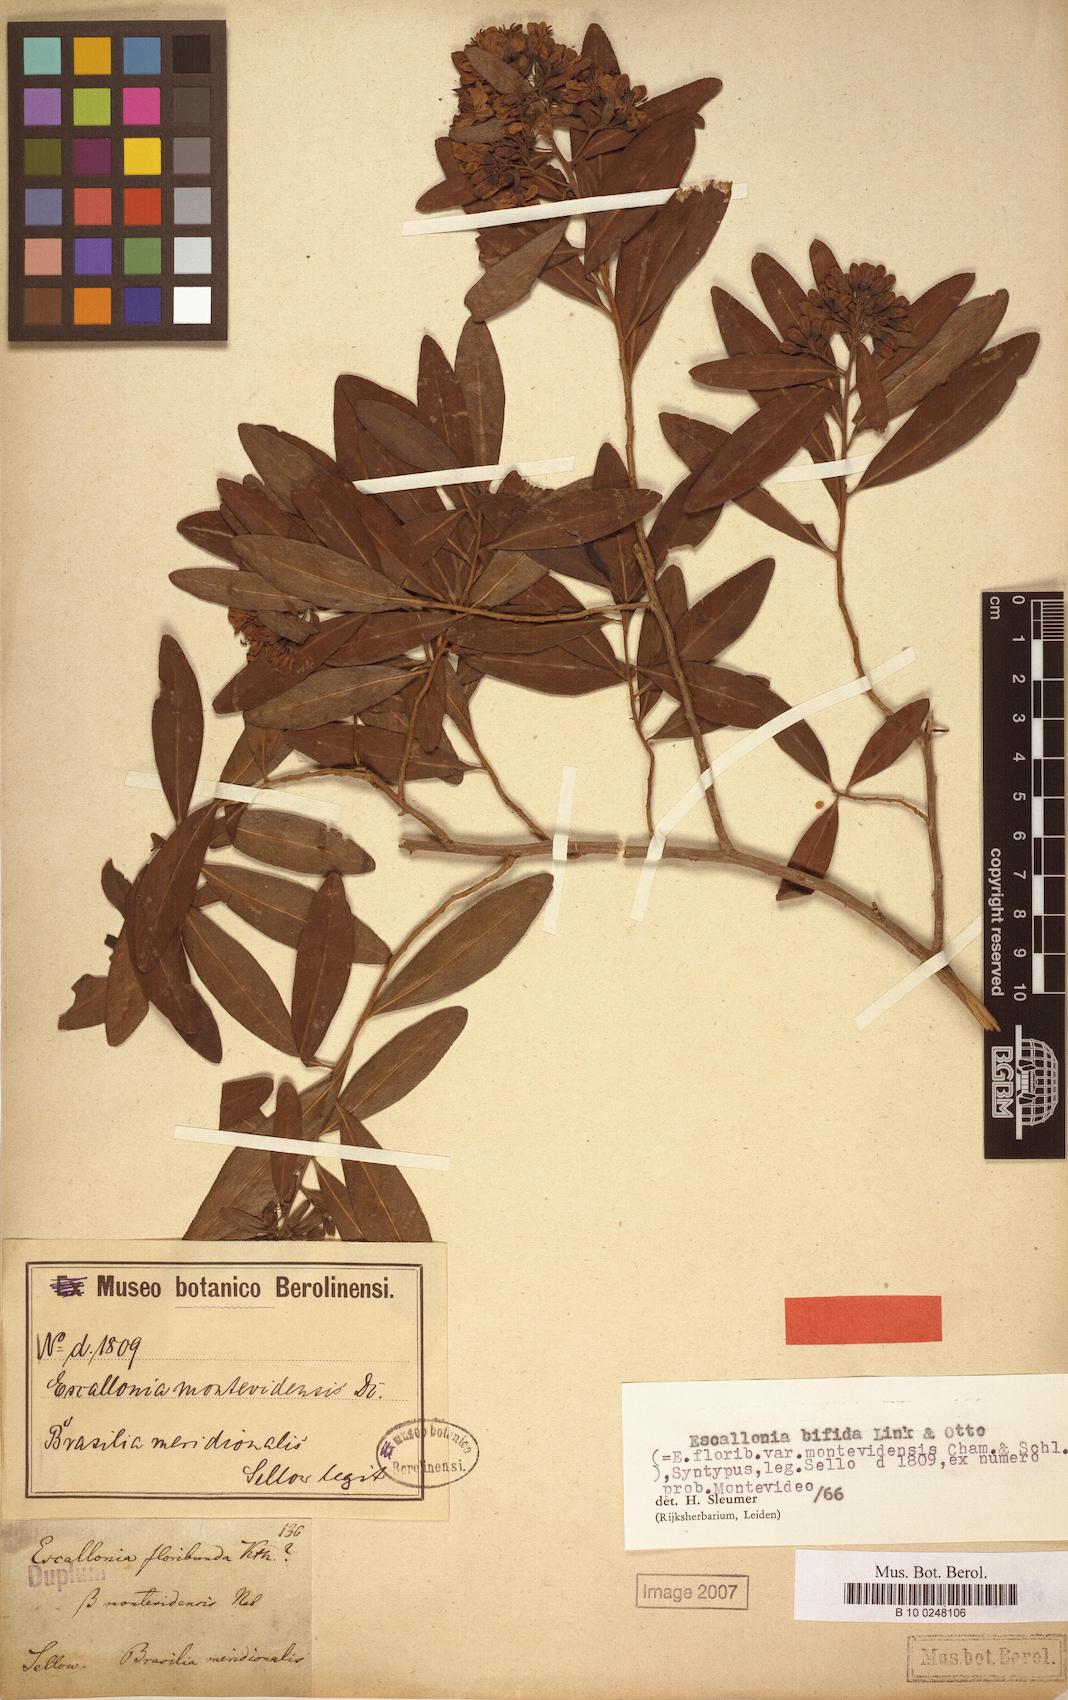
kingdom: Plantae
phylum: Tracheophyta
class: Magnoliopsida
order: Escalloniales
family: Escalloniaceae
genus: Escallonia
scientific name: Escallonia bifida
